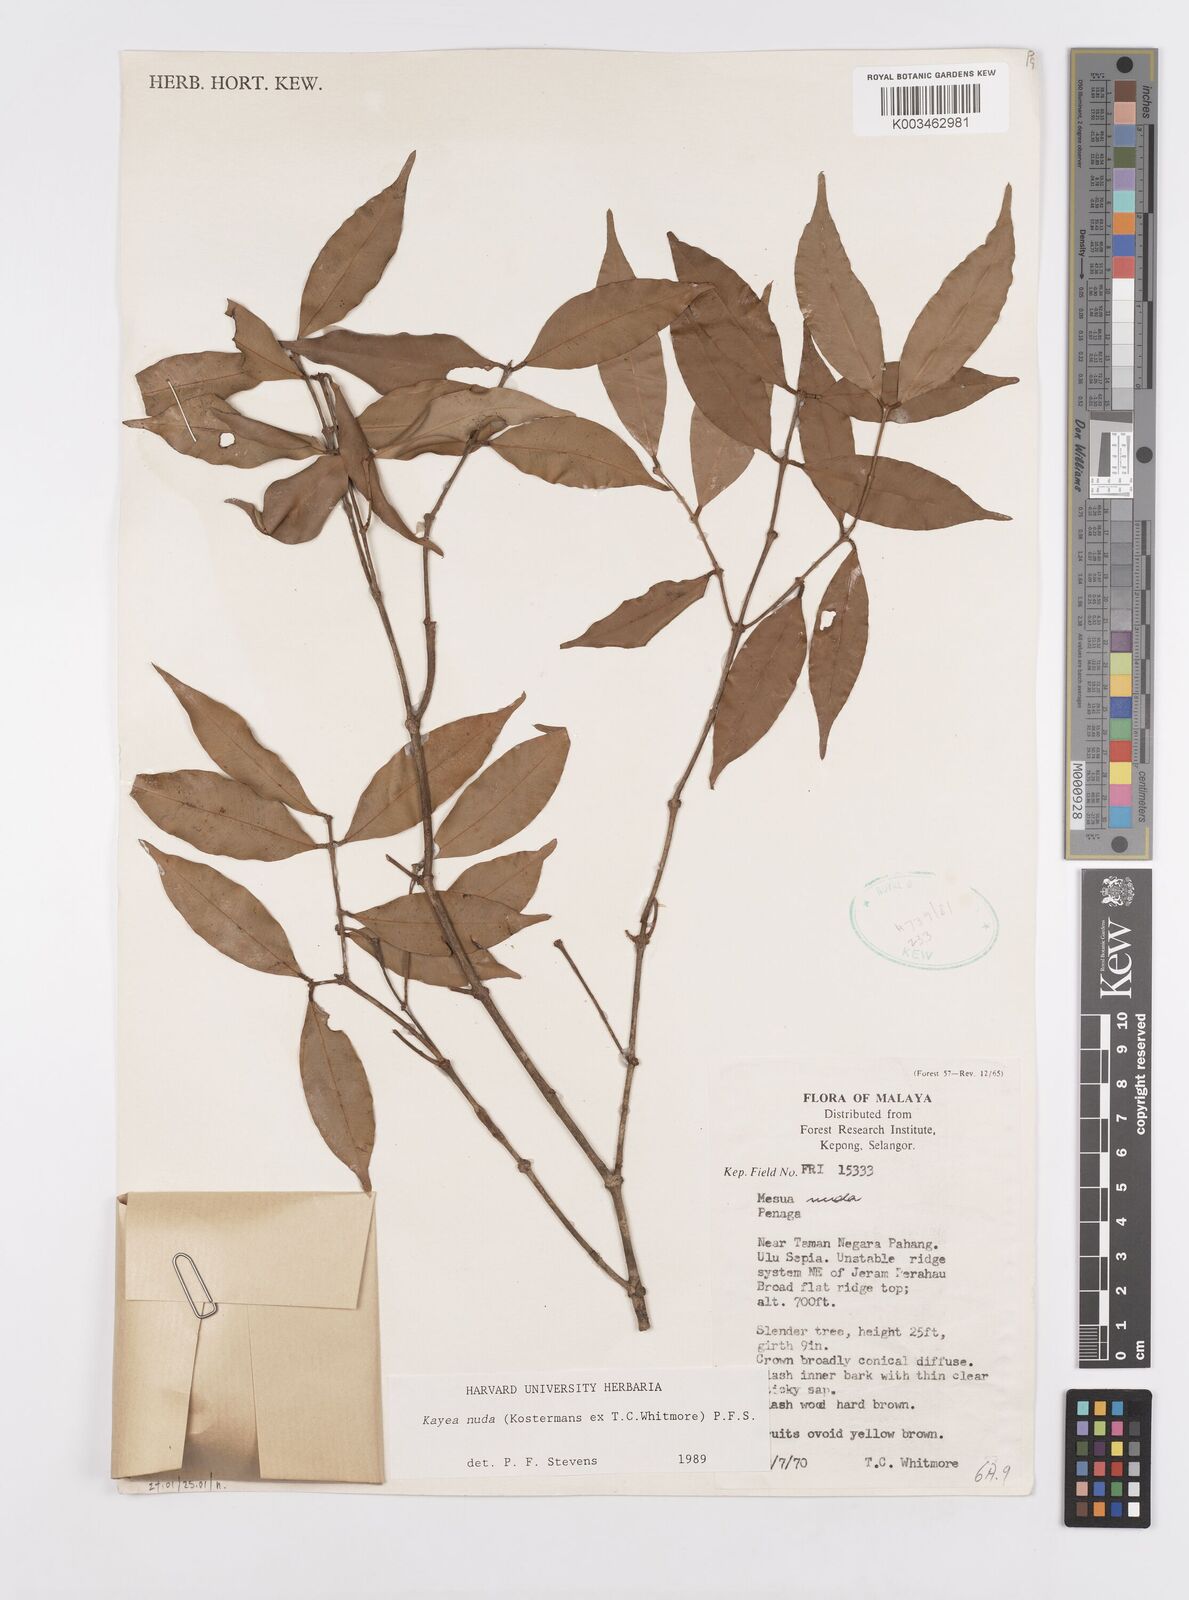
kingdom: Plantae
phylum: Tracheophyta
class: Magnoliopsida
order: Malpighiales
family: Calophyllaceae
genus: Kayea
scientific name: Kayea
